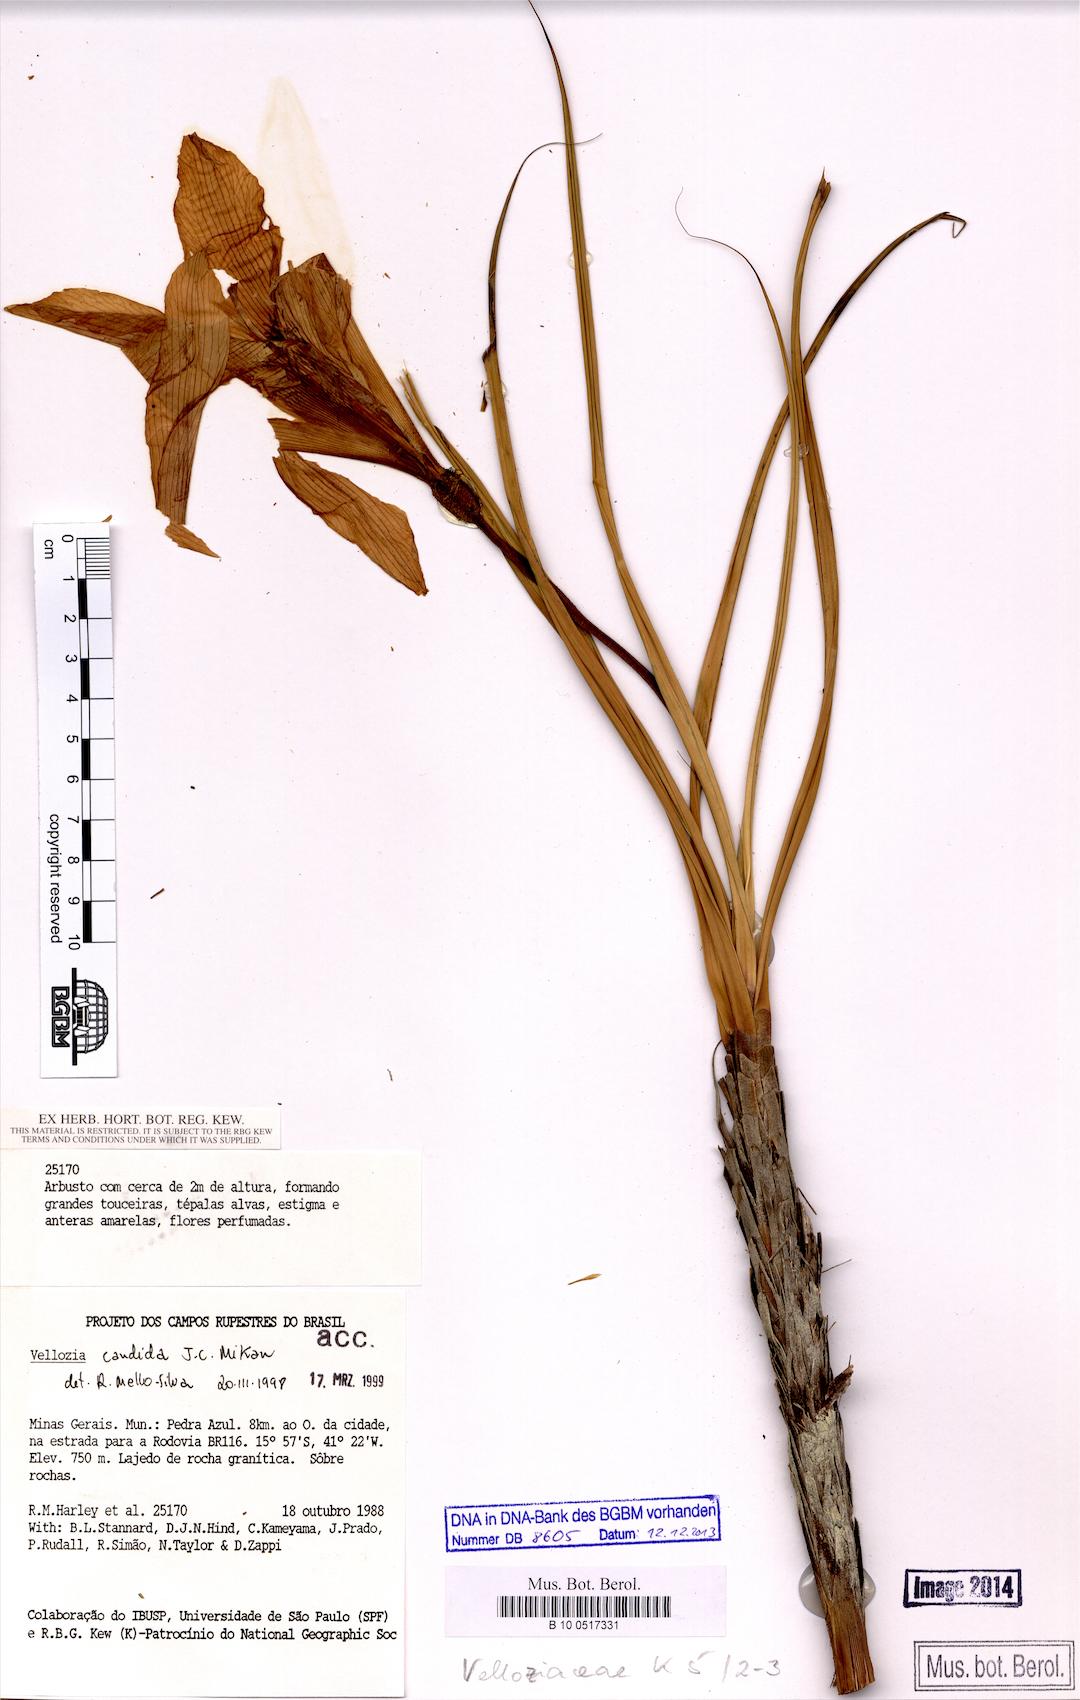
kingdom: Plantae
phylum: Tracheophyta
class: Liliopsida
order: Pandanales
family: Velloziaceae
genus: Vellozia
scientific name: Vellozia candida
